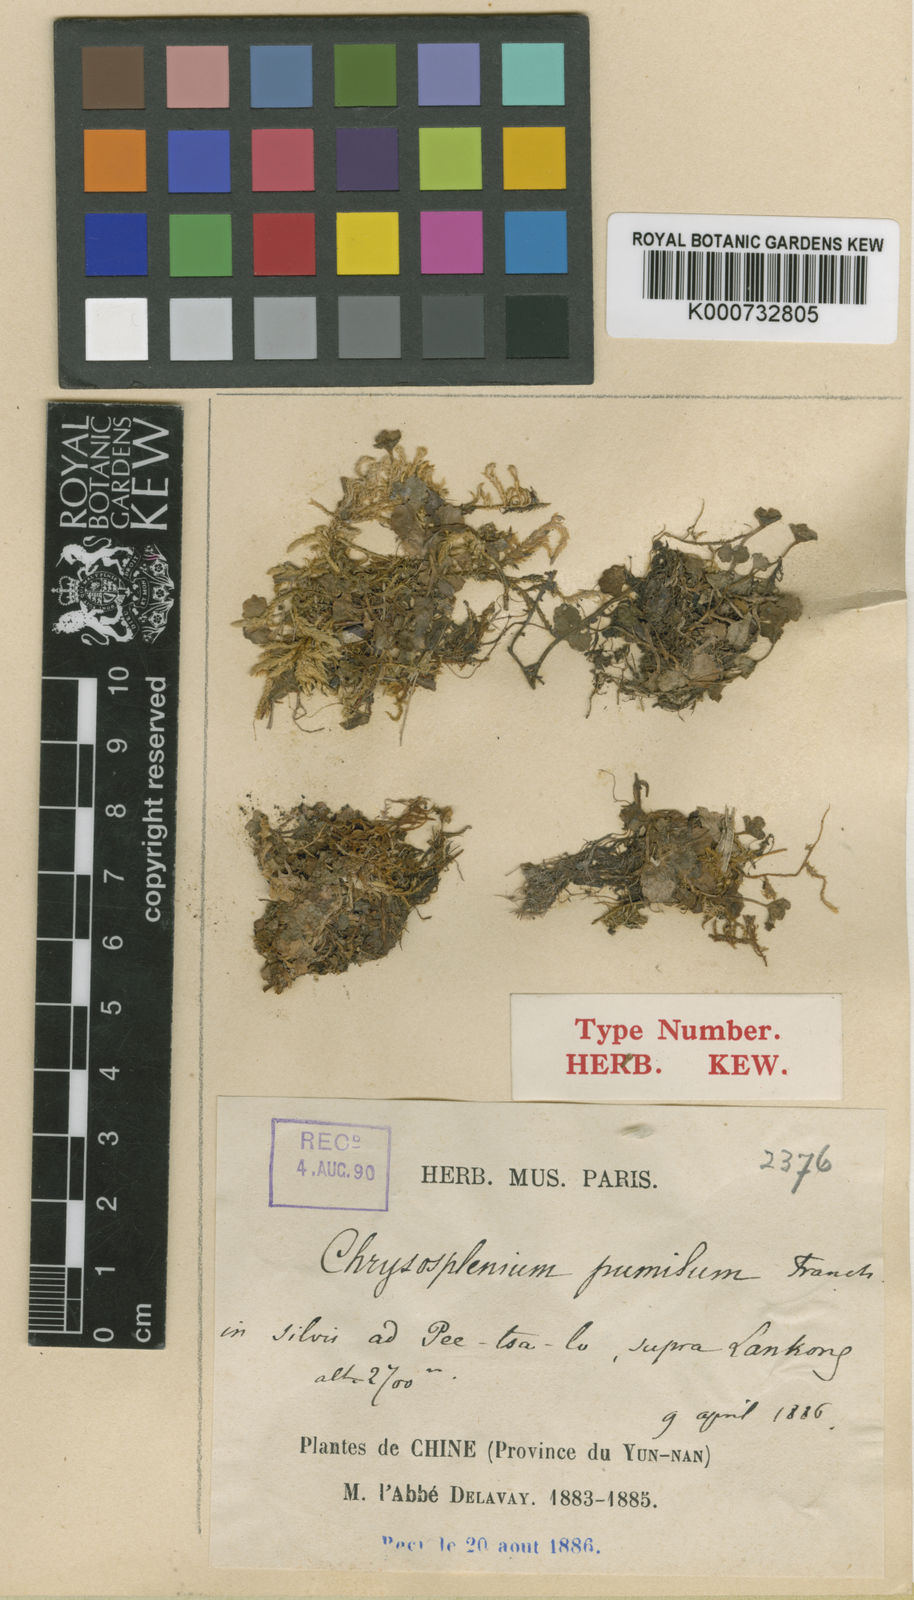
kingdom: Plantae
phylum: Tracheophyta
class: Magnoliopsida
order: Saxifragales
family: Saxifragaceae
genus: Chrysosplenium
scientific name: Chrysosplenium delavayi
